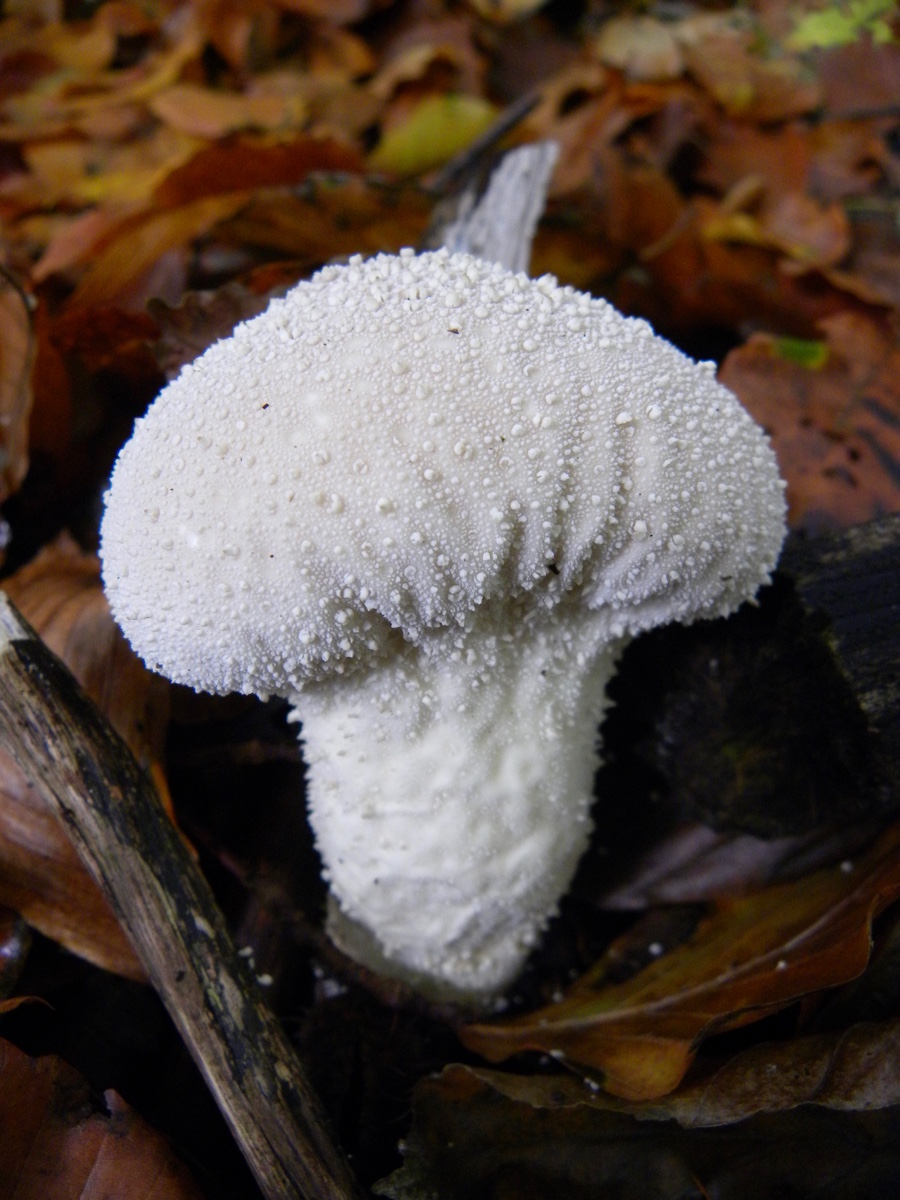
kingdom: Fungi
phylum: Basidiomycota
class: Agaricomycetes
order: Agaricales
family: Lycoperdaceae
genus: Lycoperdon
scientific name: Lycoperdon perlatum
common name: krystal-støvbold
